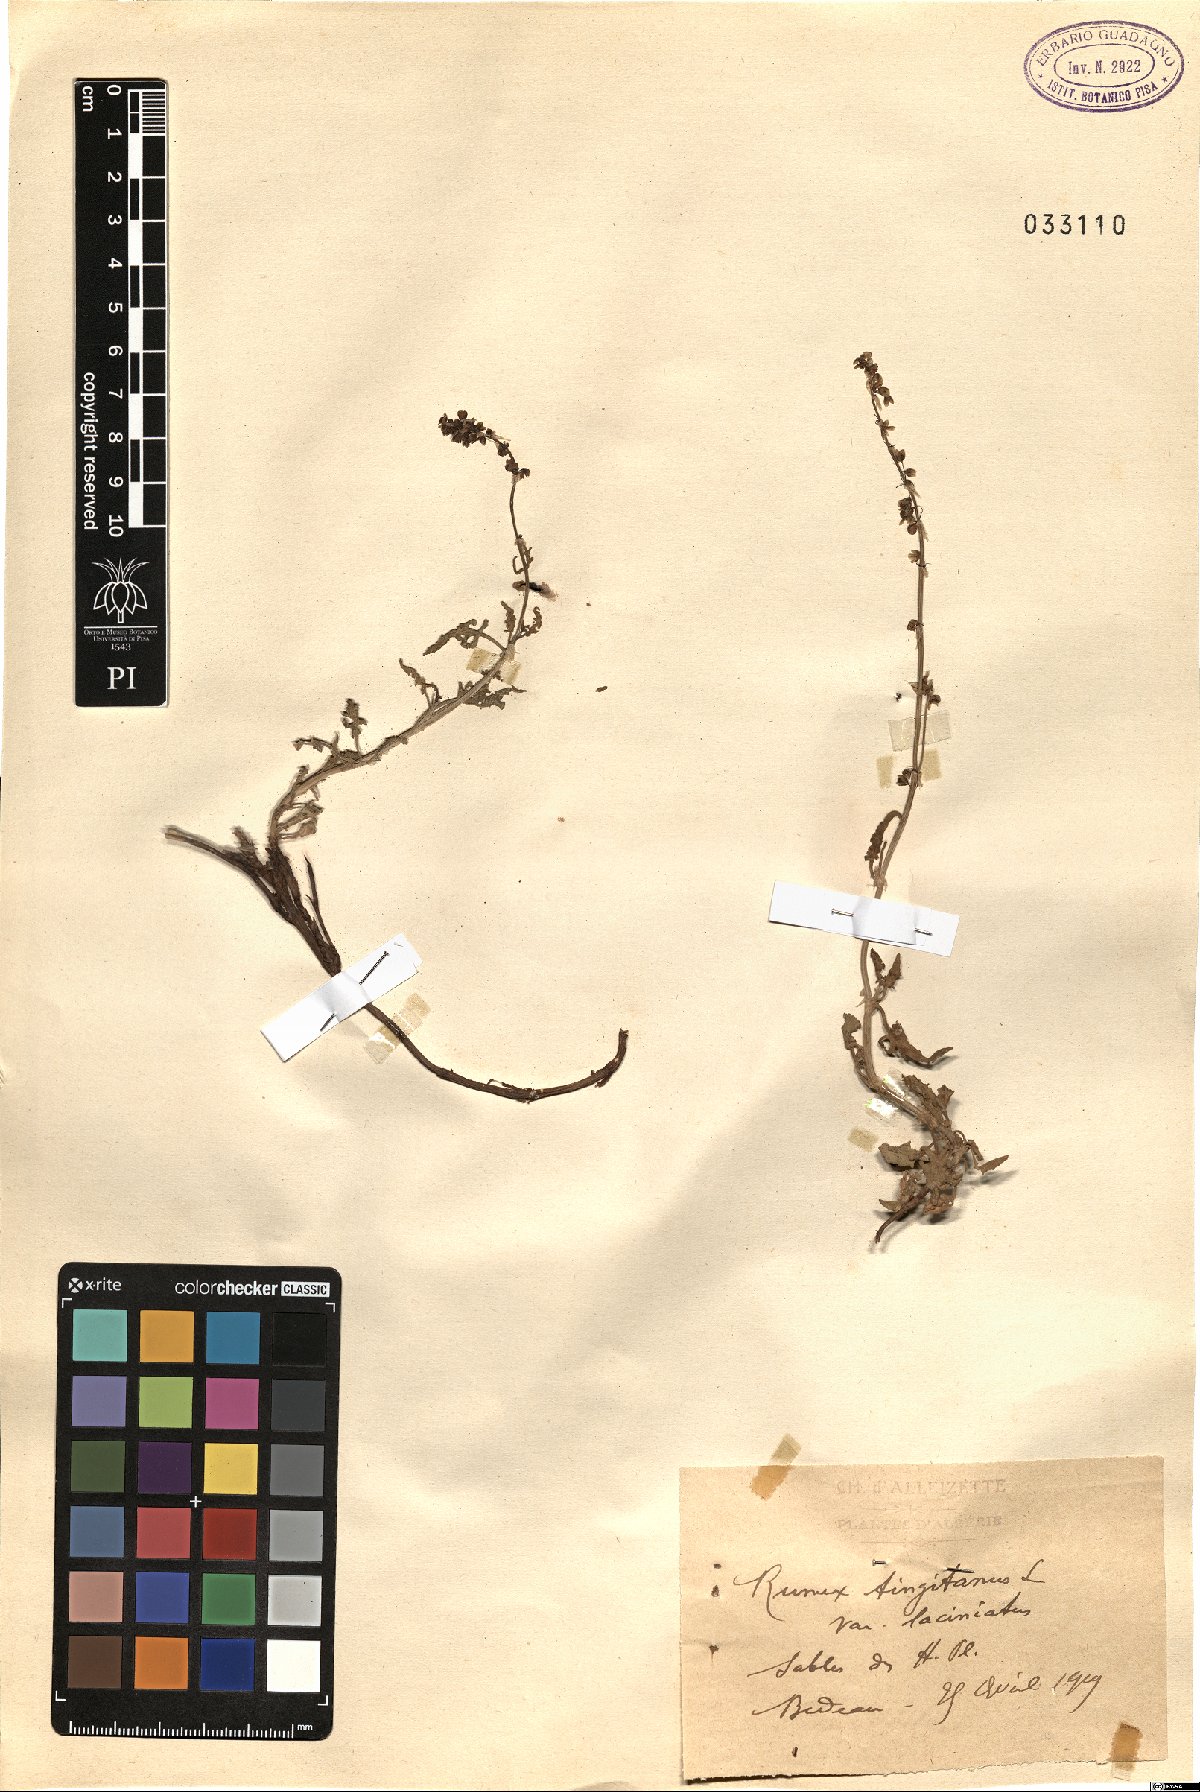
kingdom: Plantae
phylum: Tracheophyta
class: Magnoliopsida
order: Caryophyllales
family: Polygonaceae
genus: Rumex
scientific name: Rumex roseus
